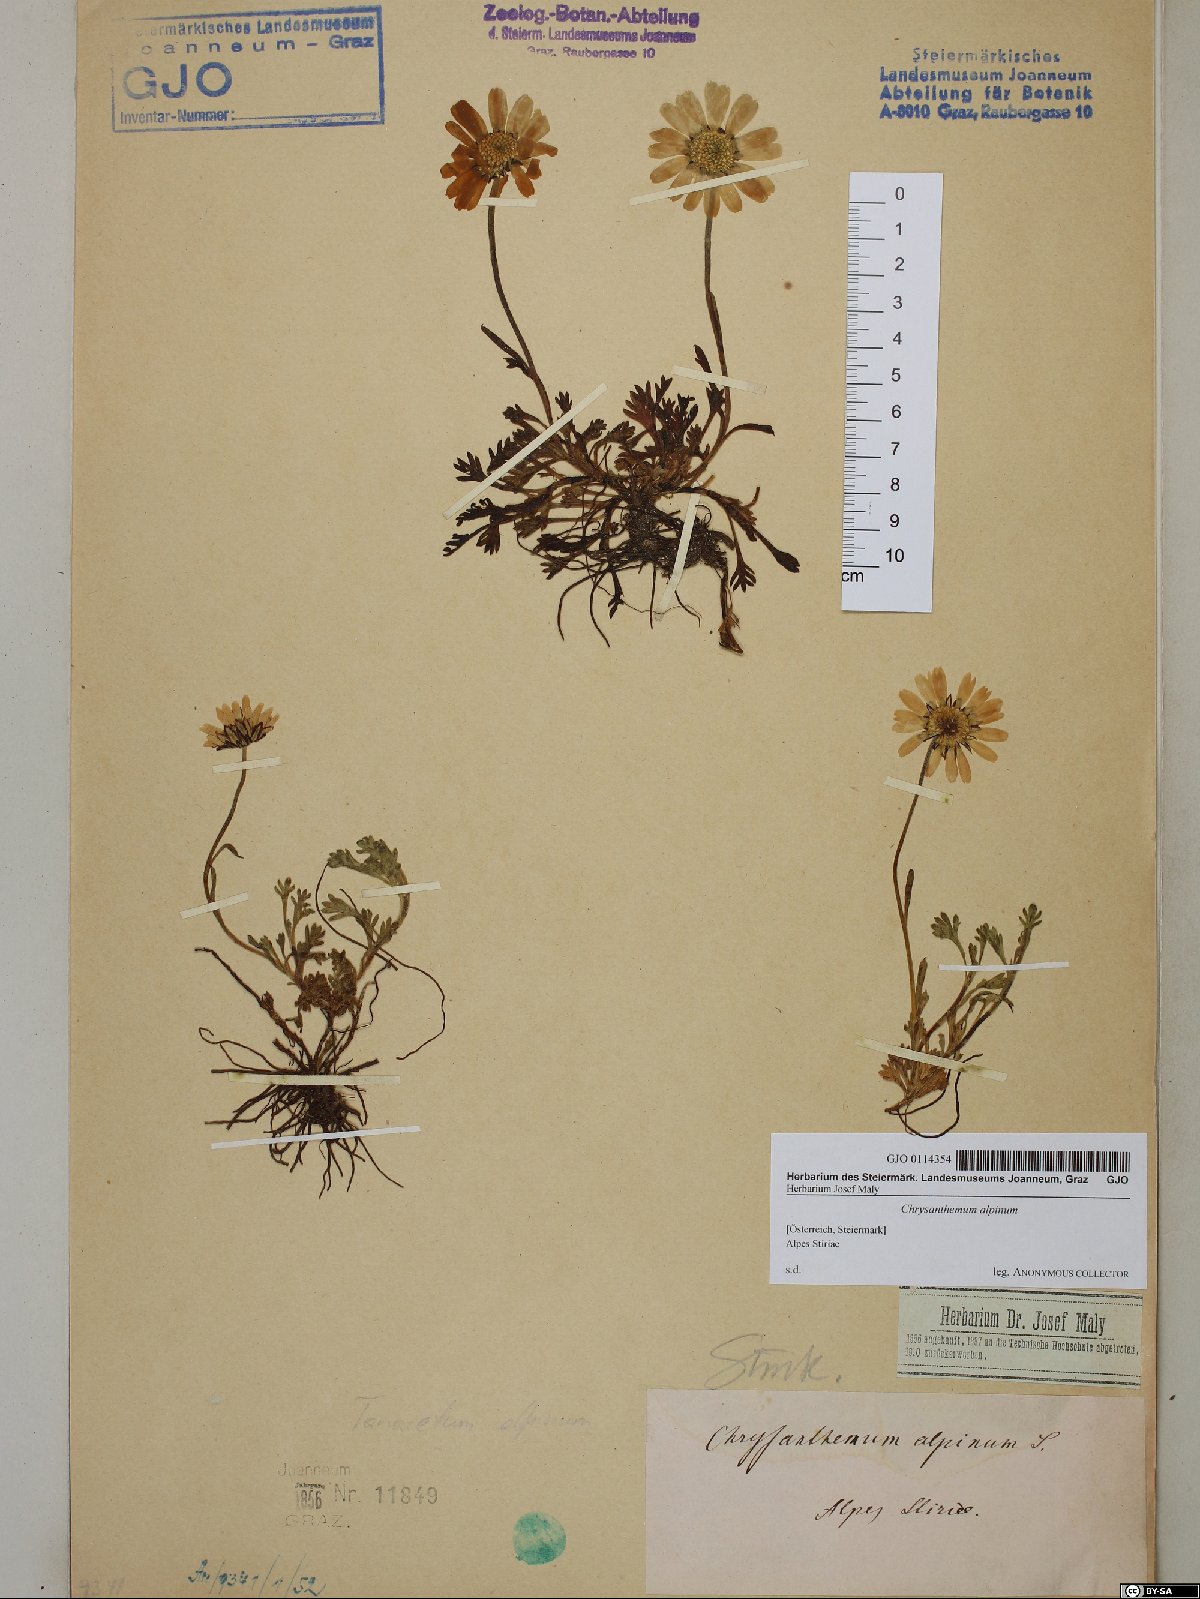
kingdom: Plantae
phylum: Tracheophyta
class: Magnoliopsida
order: Asterales
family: Asteraceae
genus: Leucanthemopsis
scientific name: Leucanthemopsis alpina
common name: Alpine moon daisy
